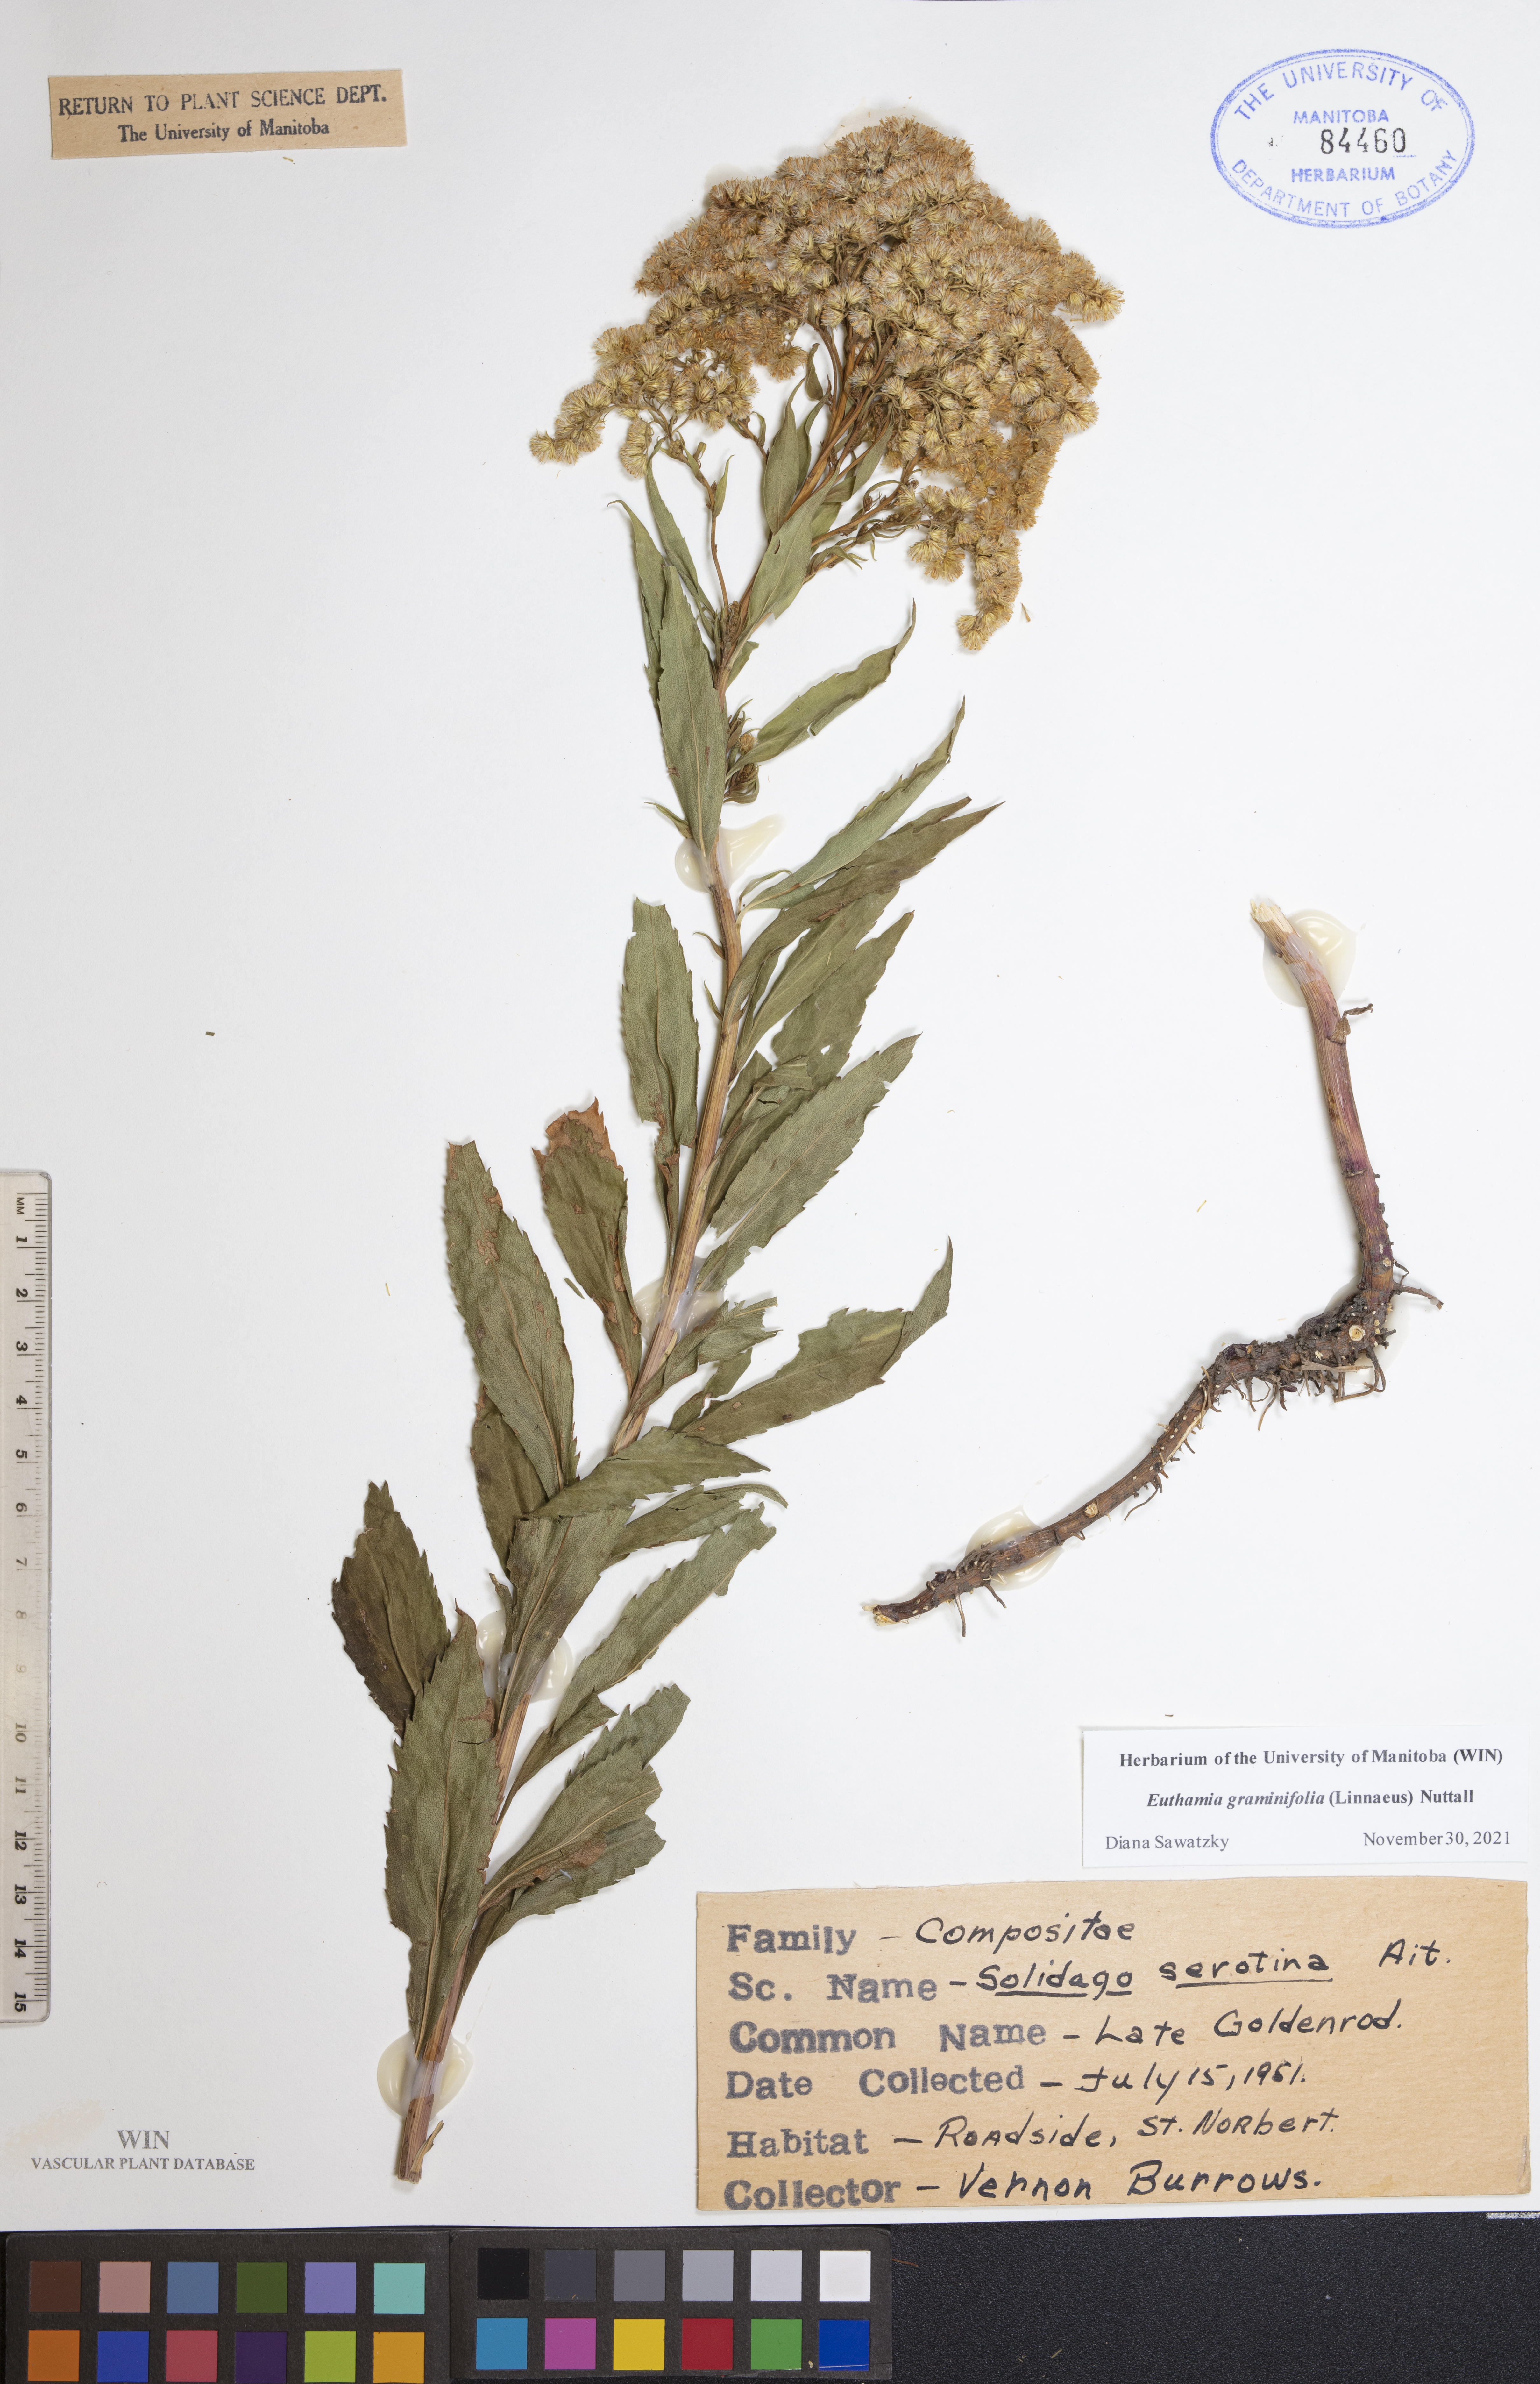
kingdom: Plantae
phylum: Tracheophyta
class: Magnoliopsida
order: Asterales
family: Asteraceae
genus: Euthamia
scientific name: Euthamia graminifolia
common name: Common goldentop
